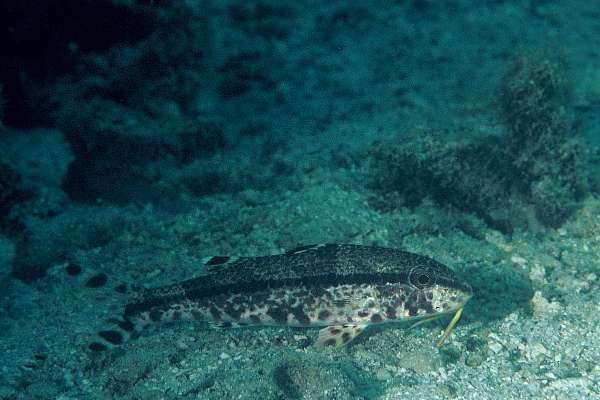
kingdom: Animalia
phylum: Chordata
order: Perciformes
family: Mullidae
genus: Upeneus
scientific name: Upeneus tragula
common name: Freckled goatfish
